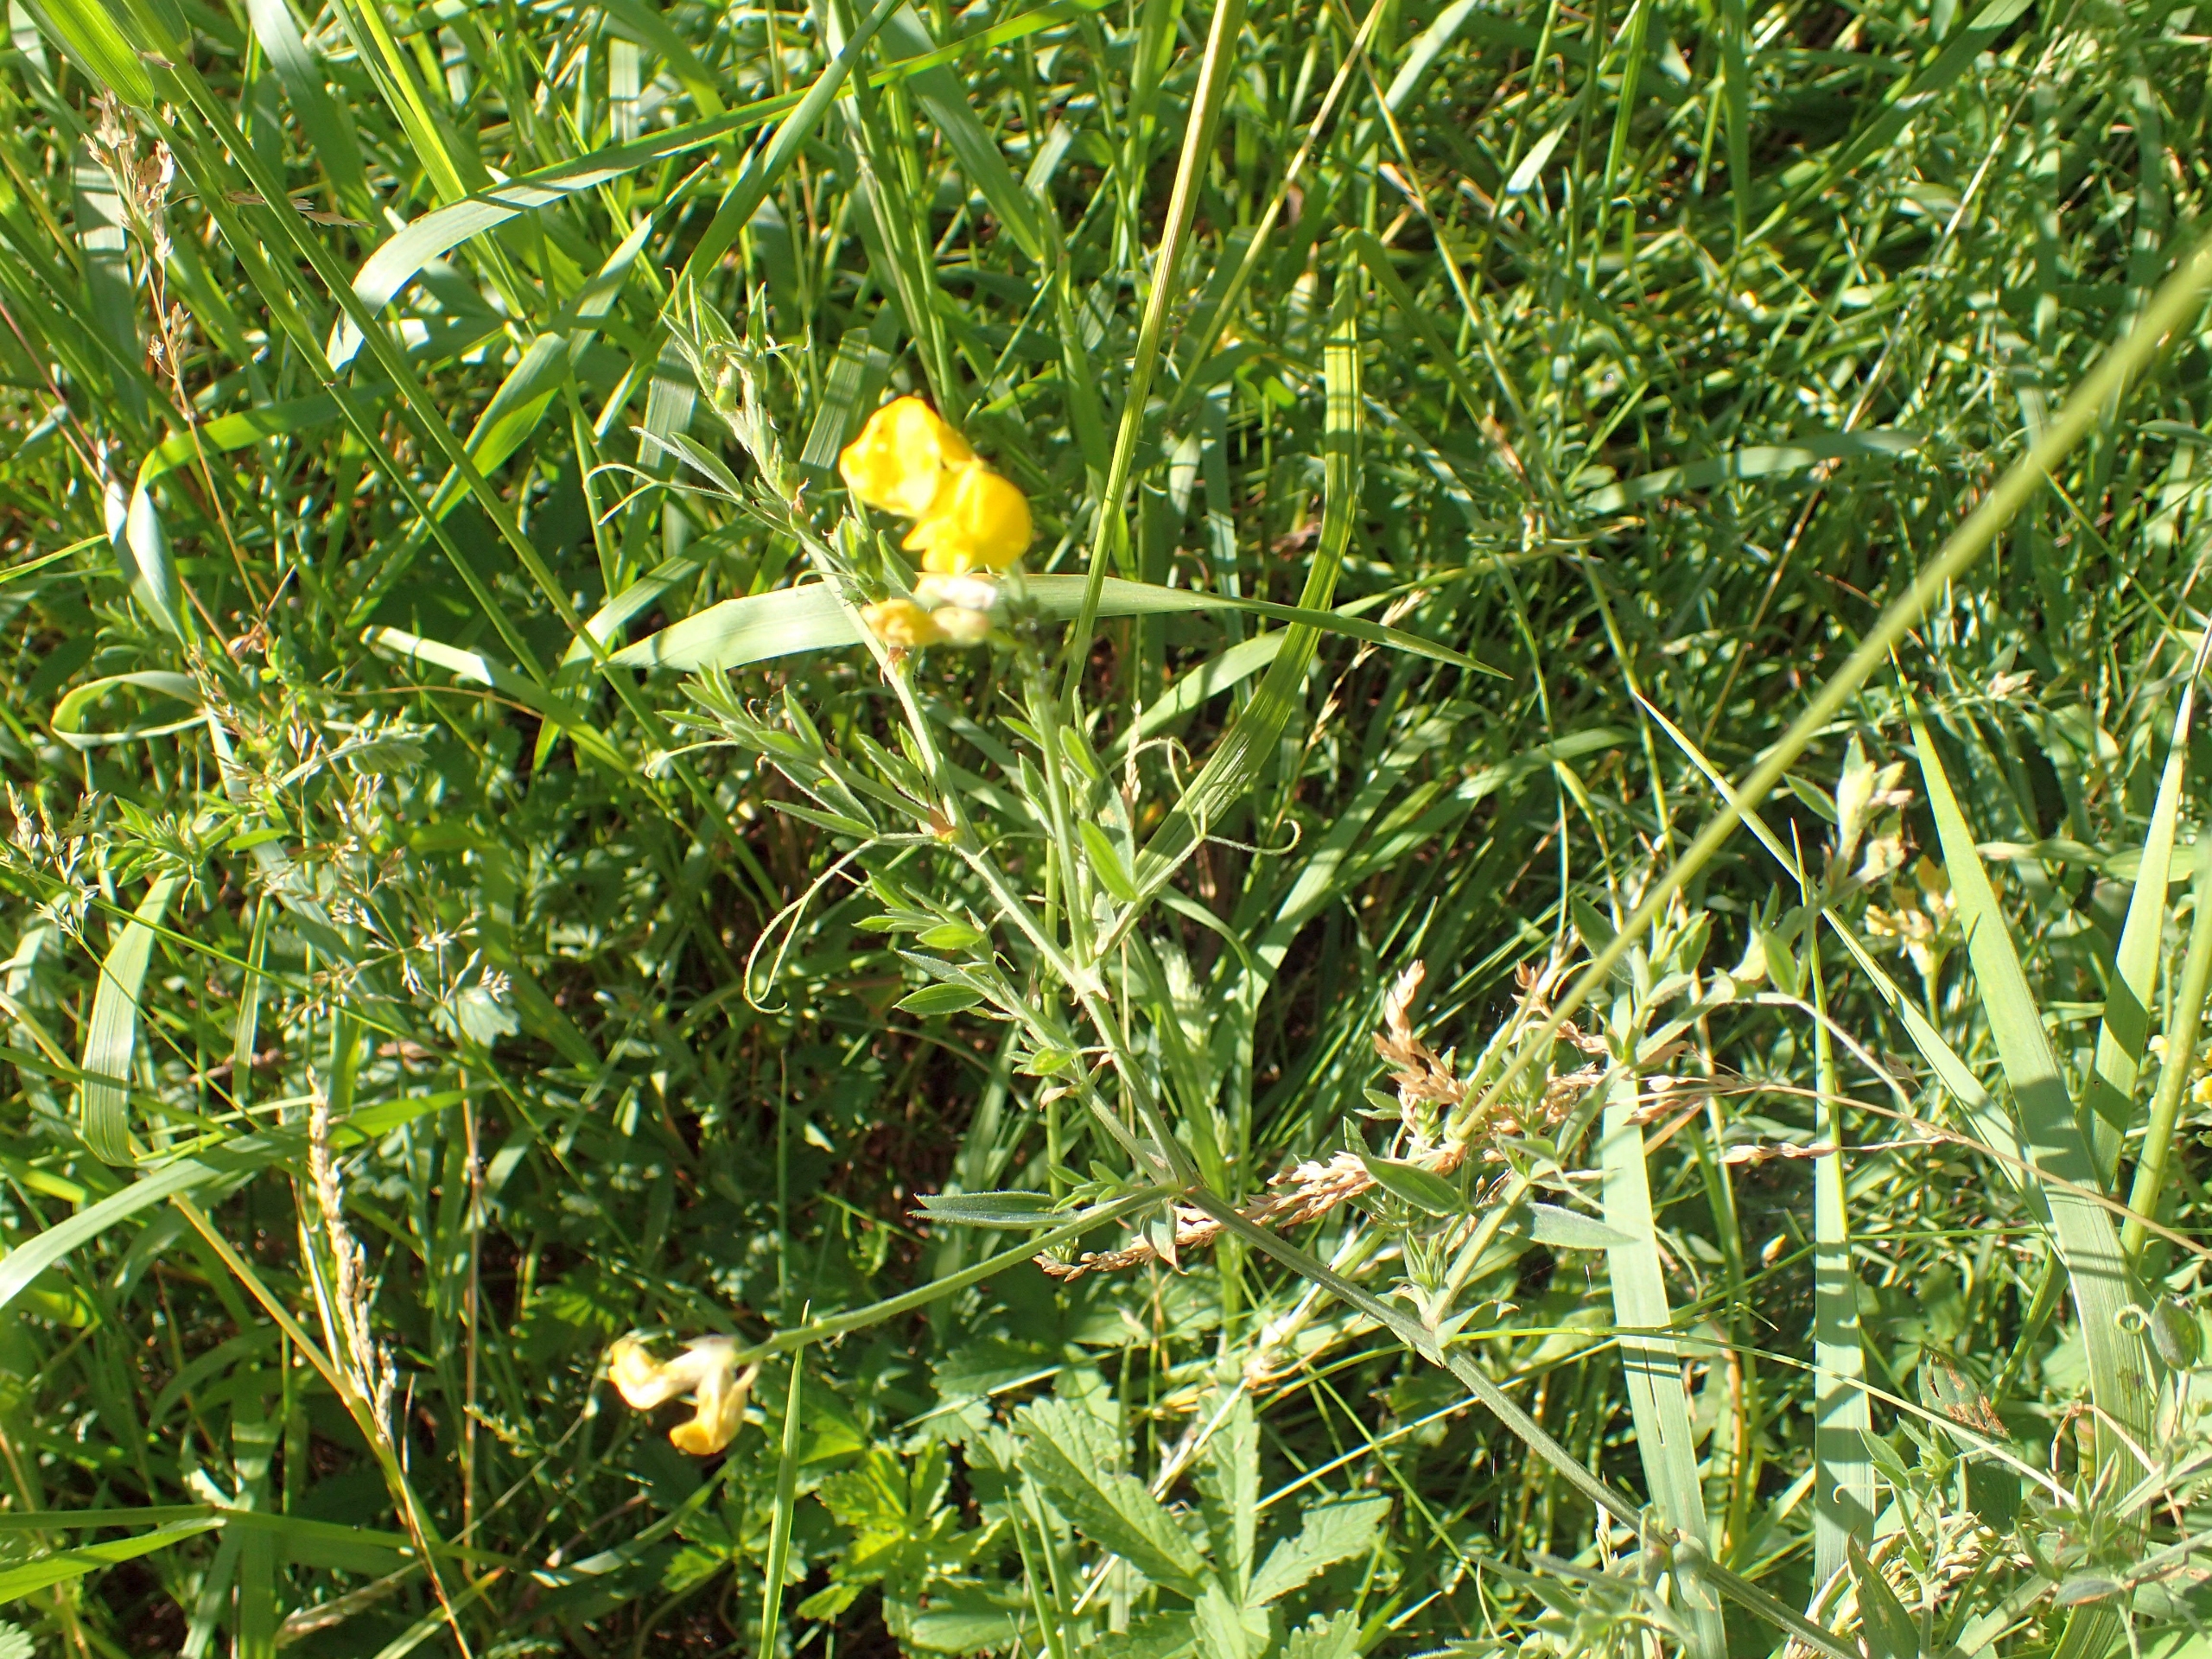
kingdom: Plantae
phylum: Tracheophyta
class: Magnoliopsida
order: Fabales
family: Fabaceae
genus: Lathyrus
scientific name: Lathyrus pratensis
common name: Gul fladbælg
